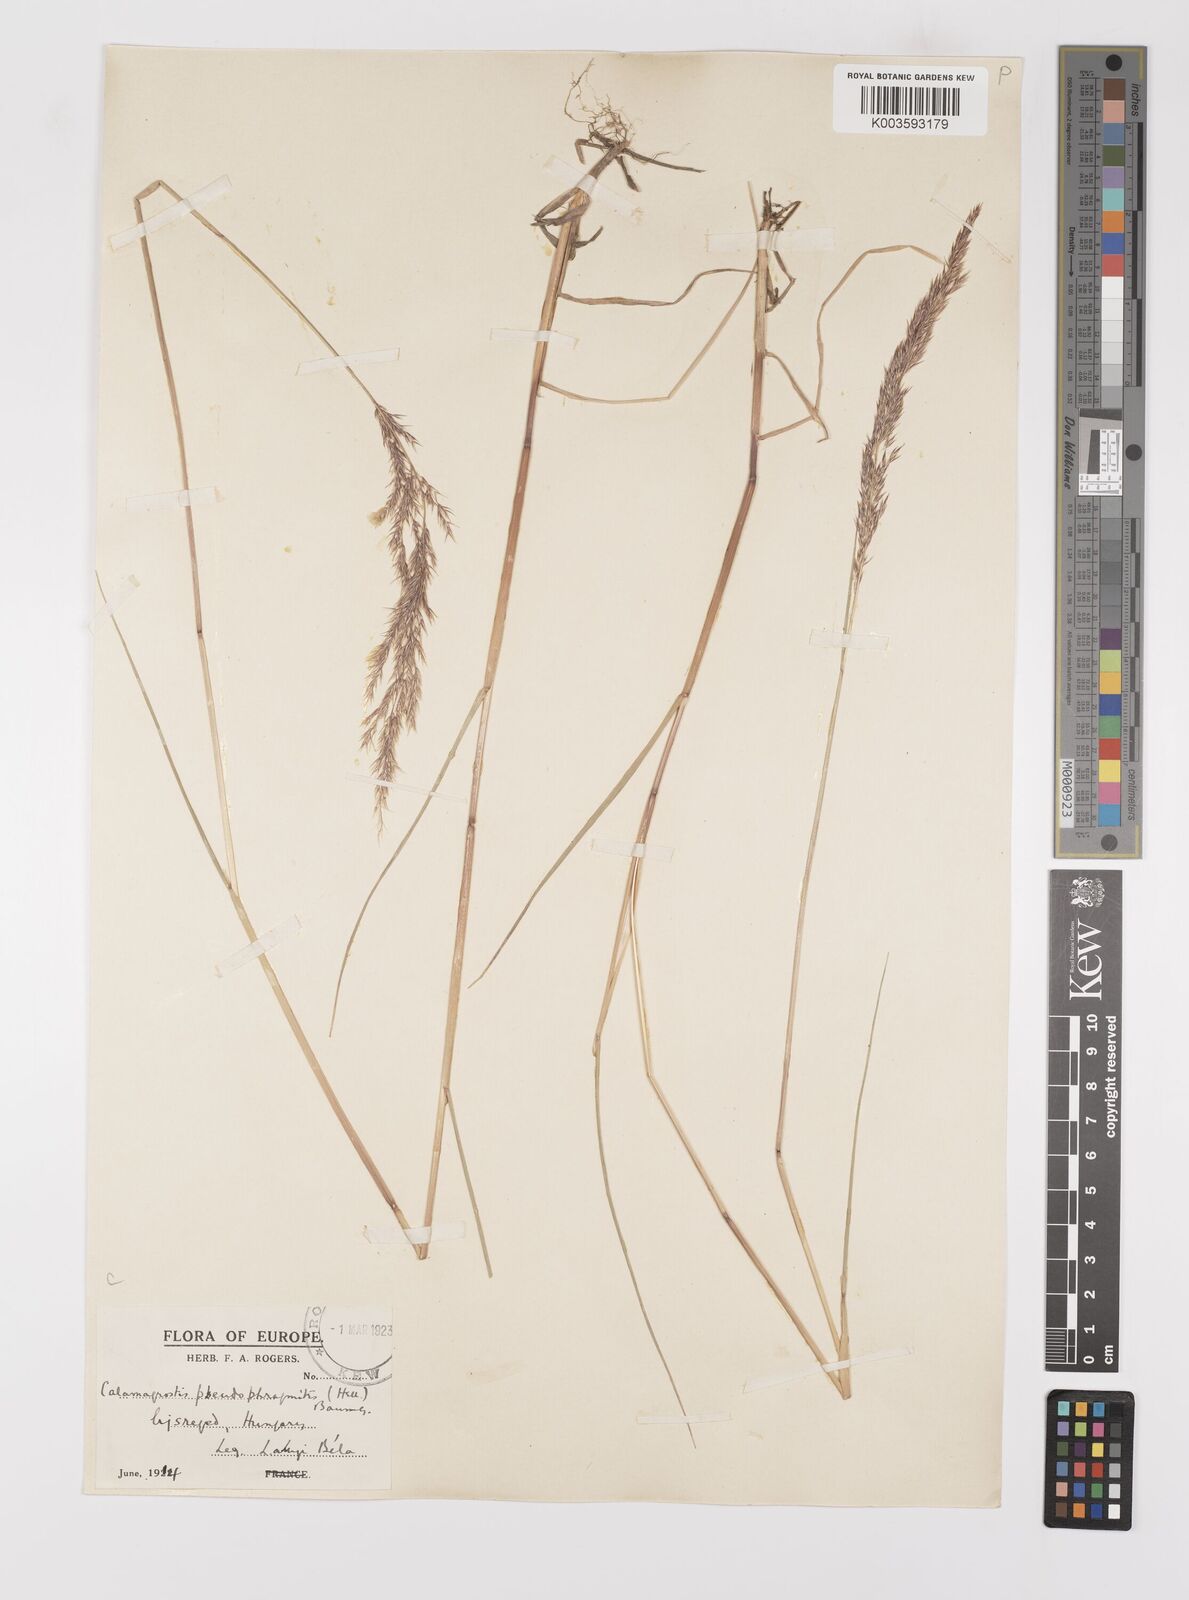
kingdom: Plantae
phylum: Tracheophyta
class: Liliopsida
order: Poales
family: Poaceae
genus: Calamagrostis
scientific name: Calamagrostis
